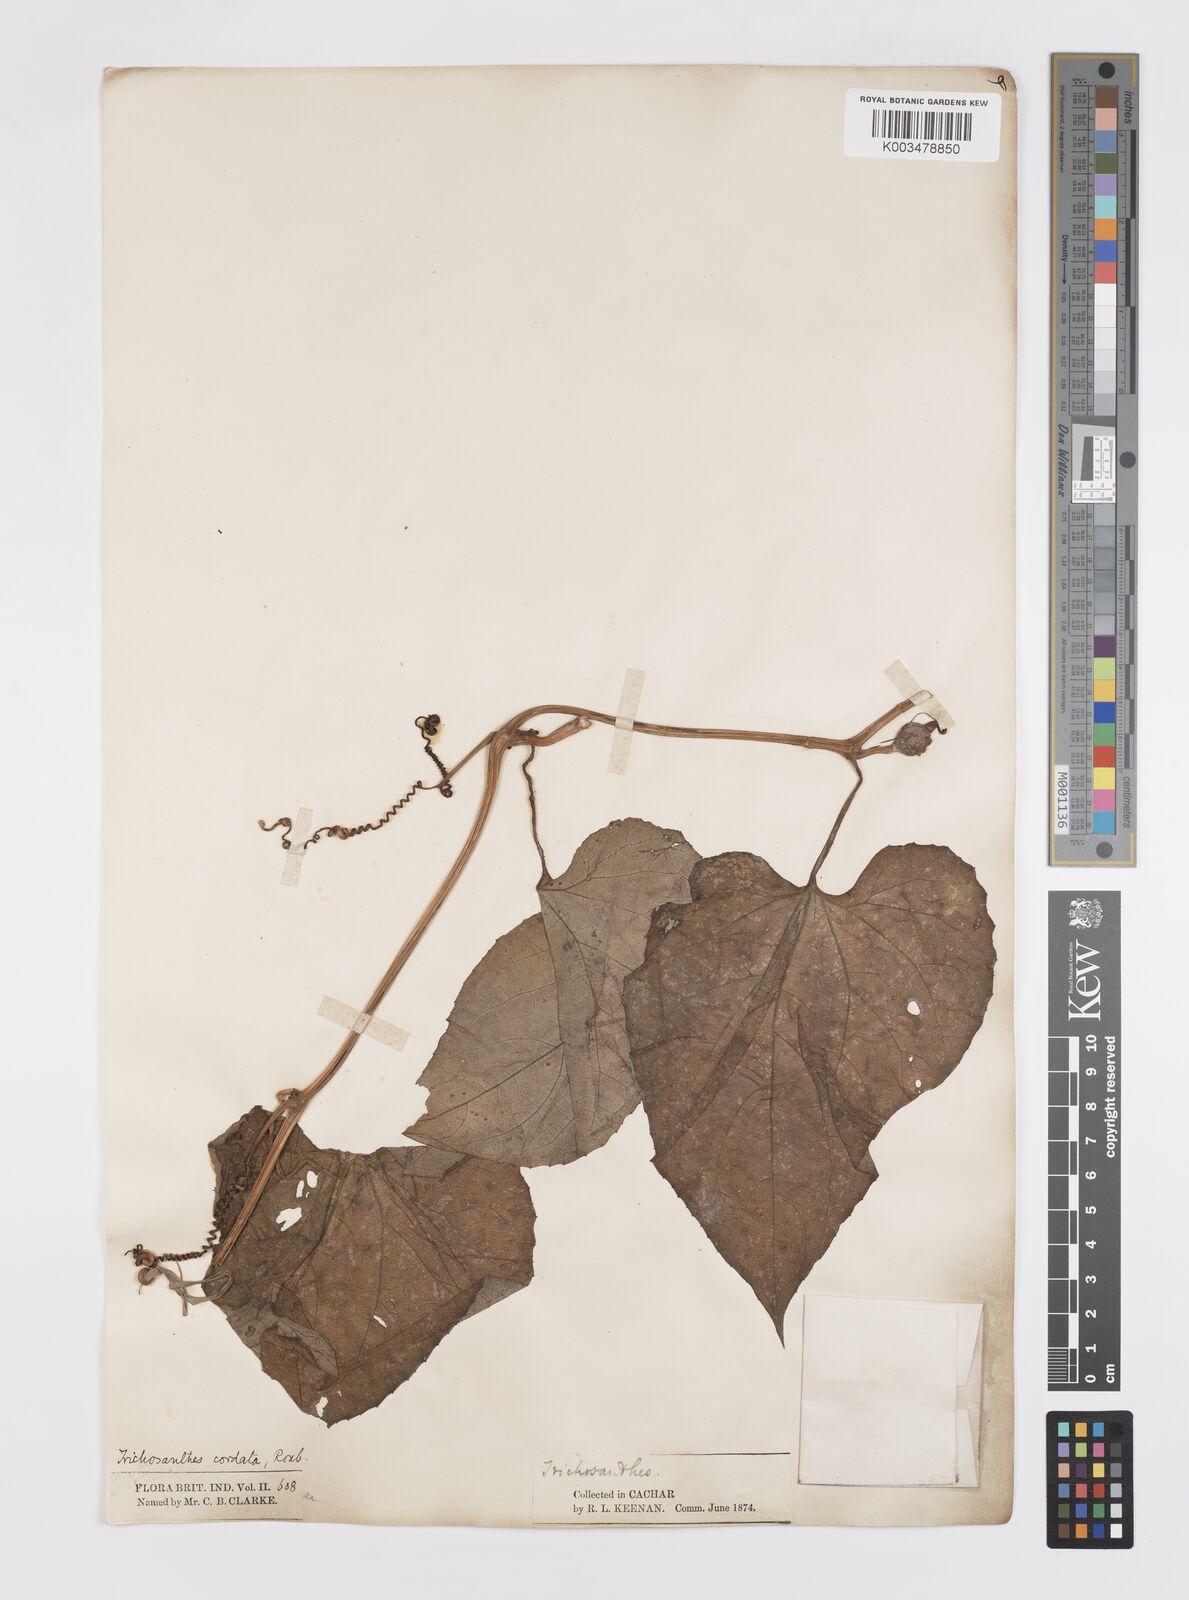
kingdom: Plantae
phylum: Tracheophyta
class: Magnoliopsida
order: Cucurbitales
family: Cucurbitaceae
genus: Trichosanthes
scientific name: Trichosanthes cordata
